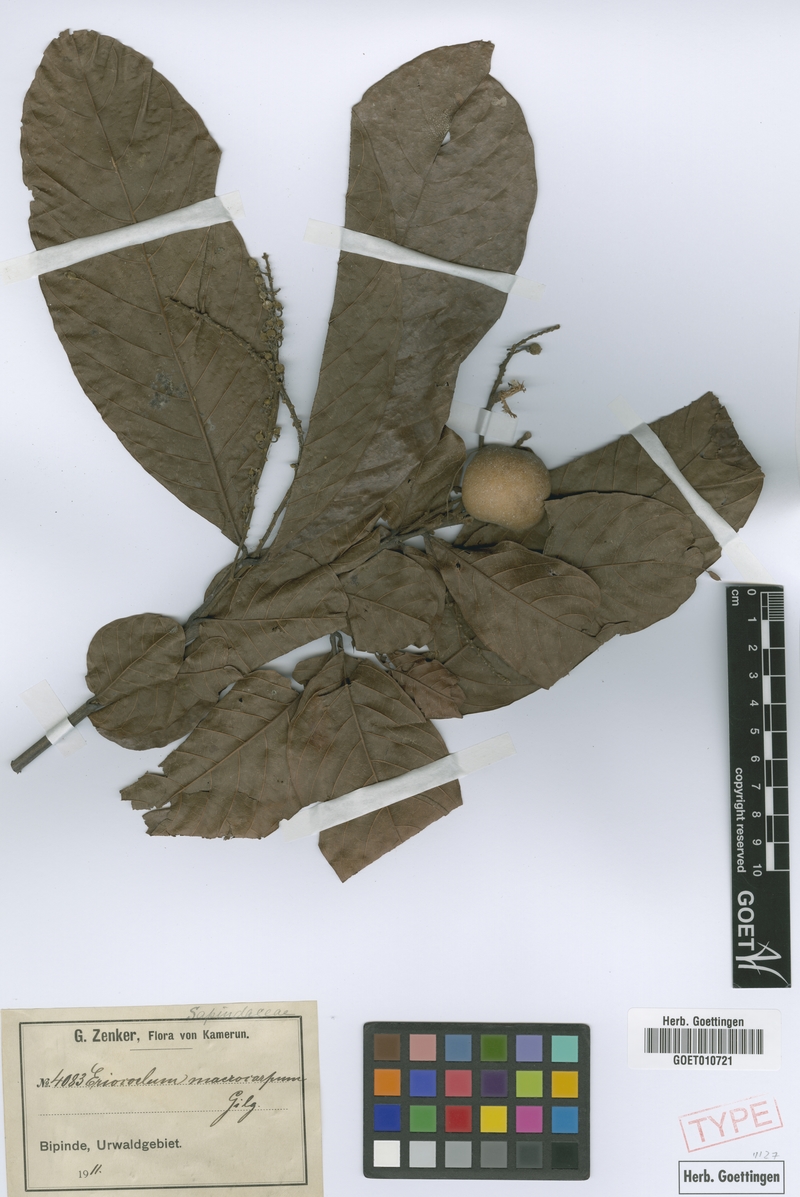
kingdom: Plantae
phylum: Tracheophyta
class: Magnoliopsida
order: Sapindales
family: Sapindaceae
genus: Eriocoelum
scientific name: Eriocoelum macrocarpum
